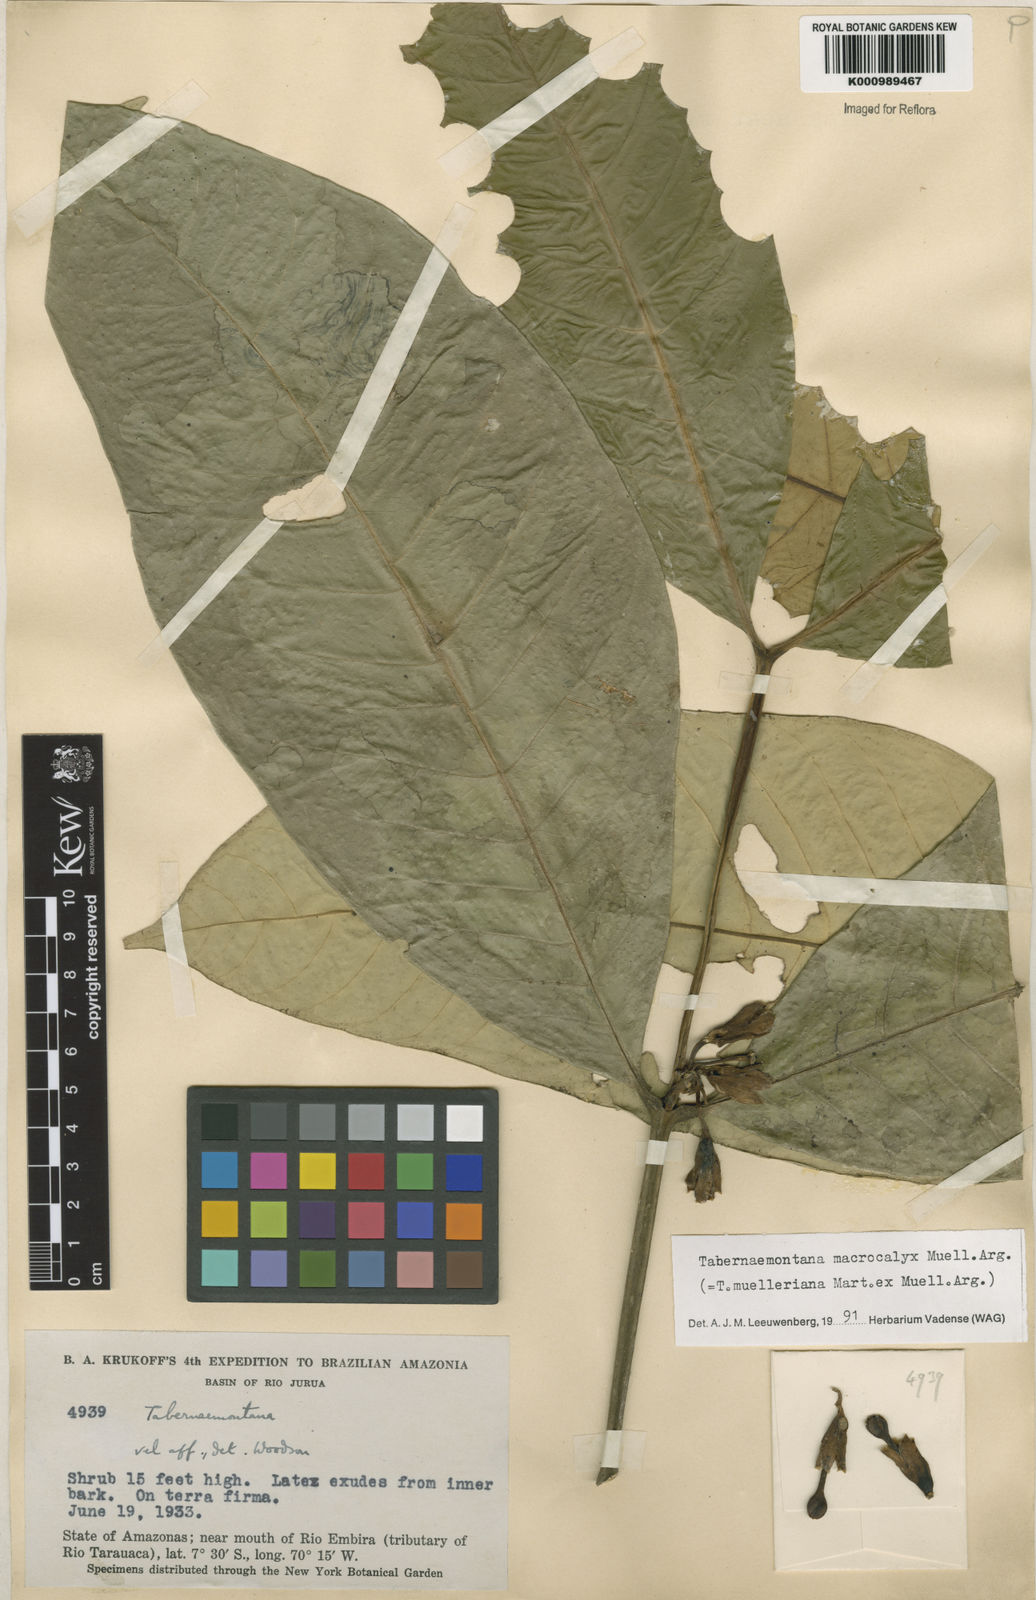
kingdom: Plantae
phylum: Tracheophyta
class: Magnoliopsida
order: Gentianales
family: Apocynaceae
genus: Tabernaemontana
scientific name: Tabernaemontana
